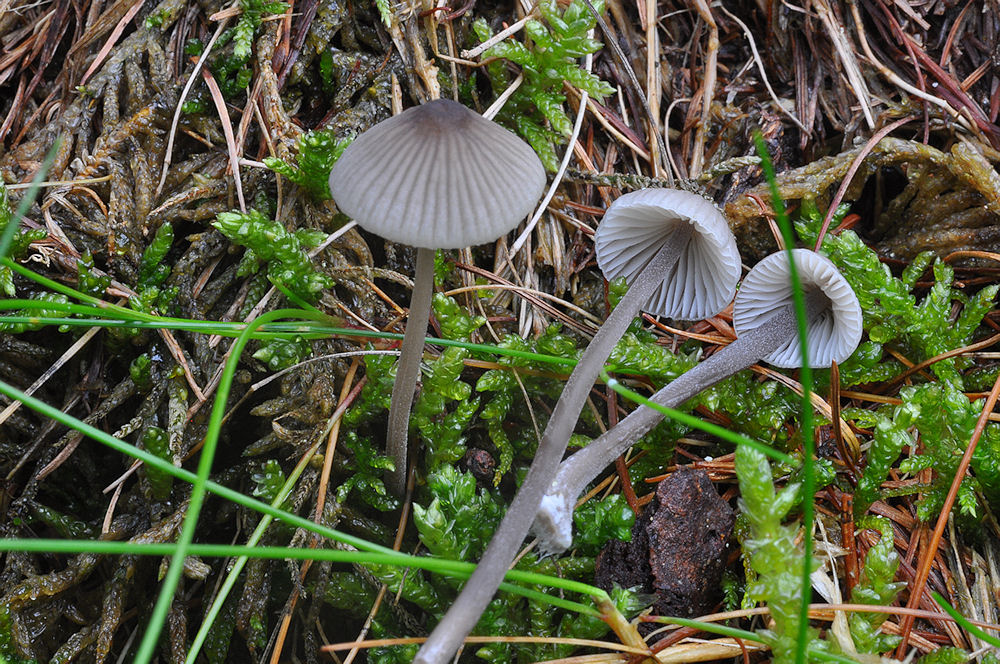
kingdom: Fungi
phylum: Basidiomycota
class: Agaricomycetes
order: Agaricales
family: Mycenaceae
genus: Mycena
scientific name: Mycena leptocephala
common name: klor-huesvamp
